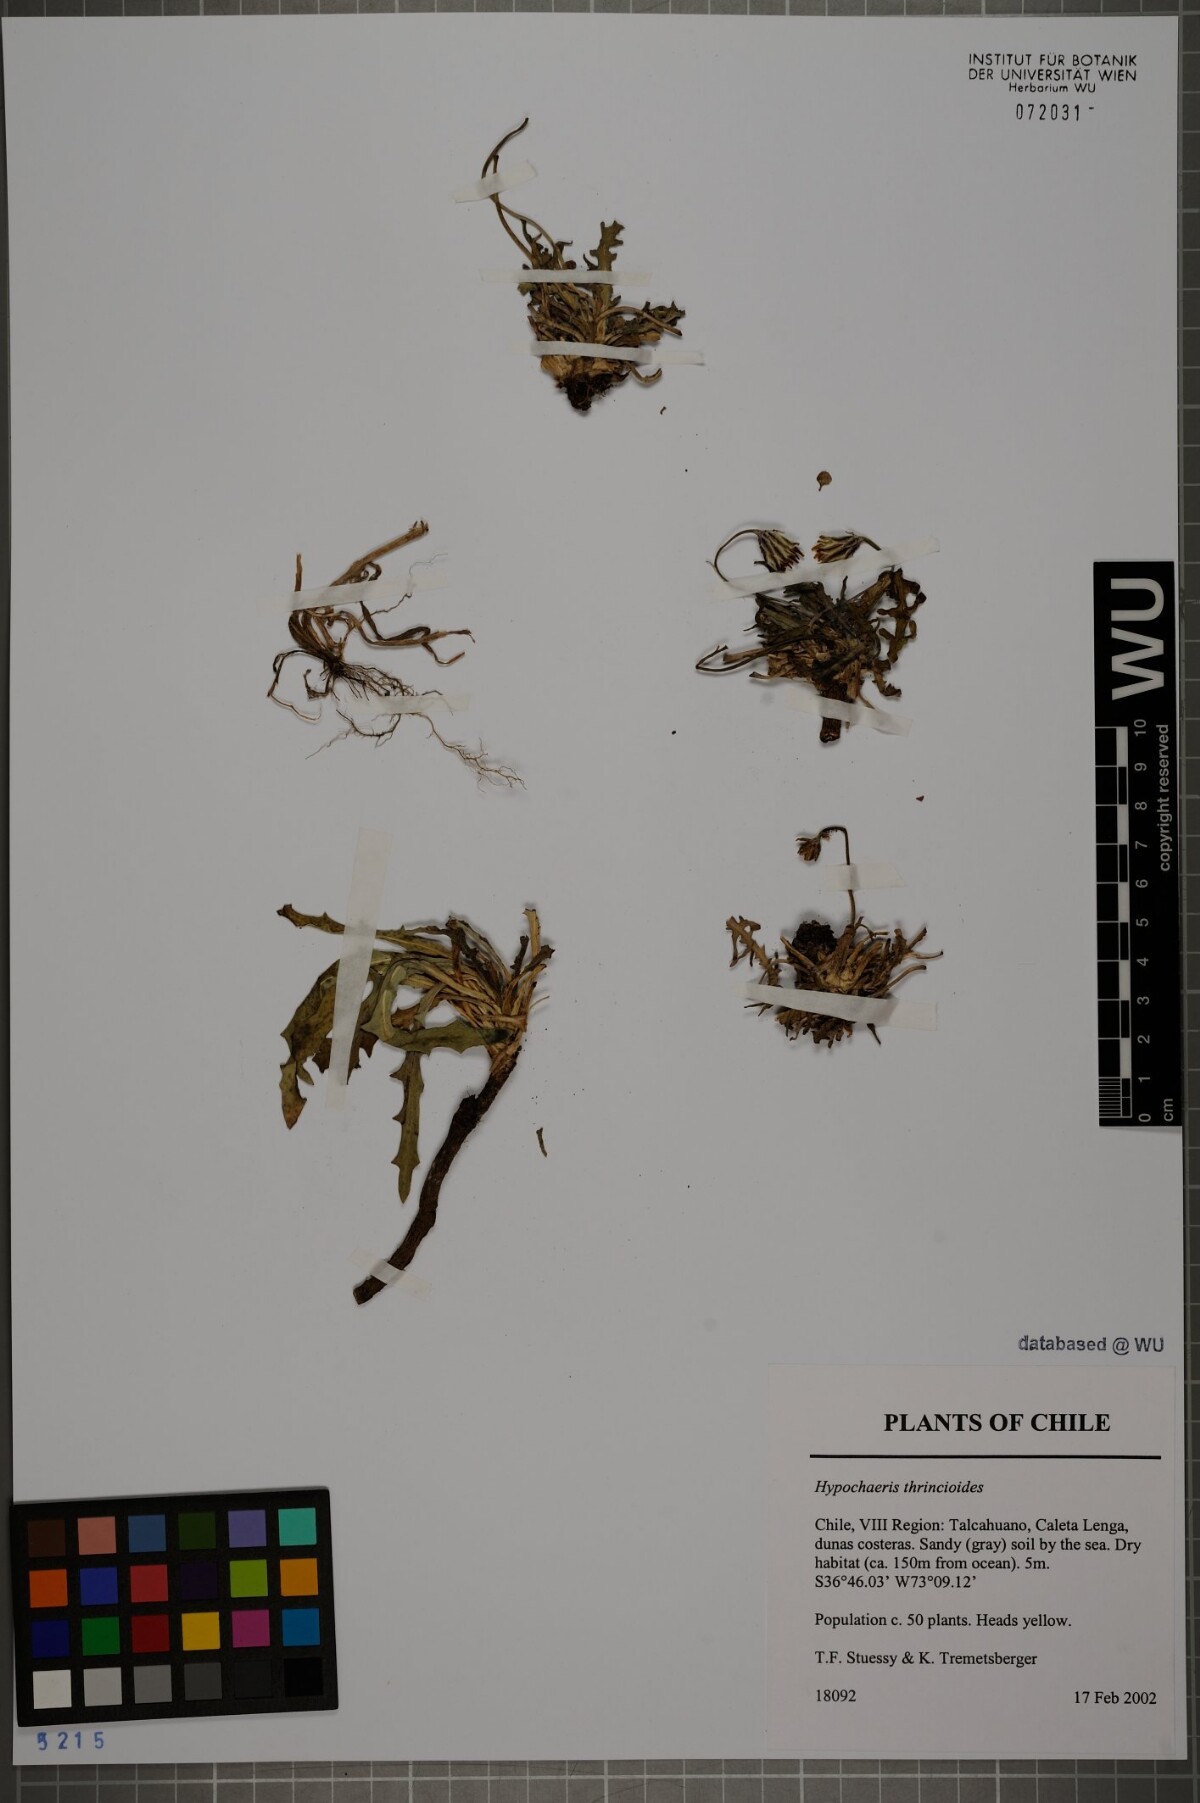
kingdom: Plantae
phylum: Tracheophyta
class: Magnoliopsida
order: Asterales
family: Asteraceae
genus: Hypochaeris
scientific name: Hypochaeris apargioides
